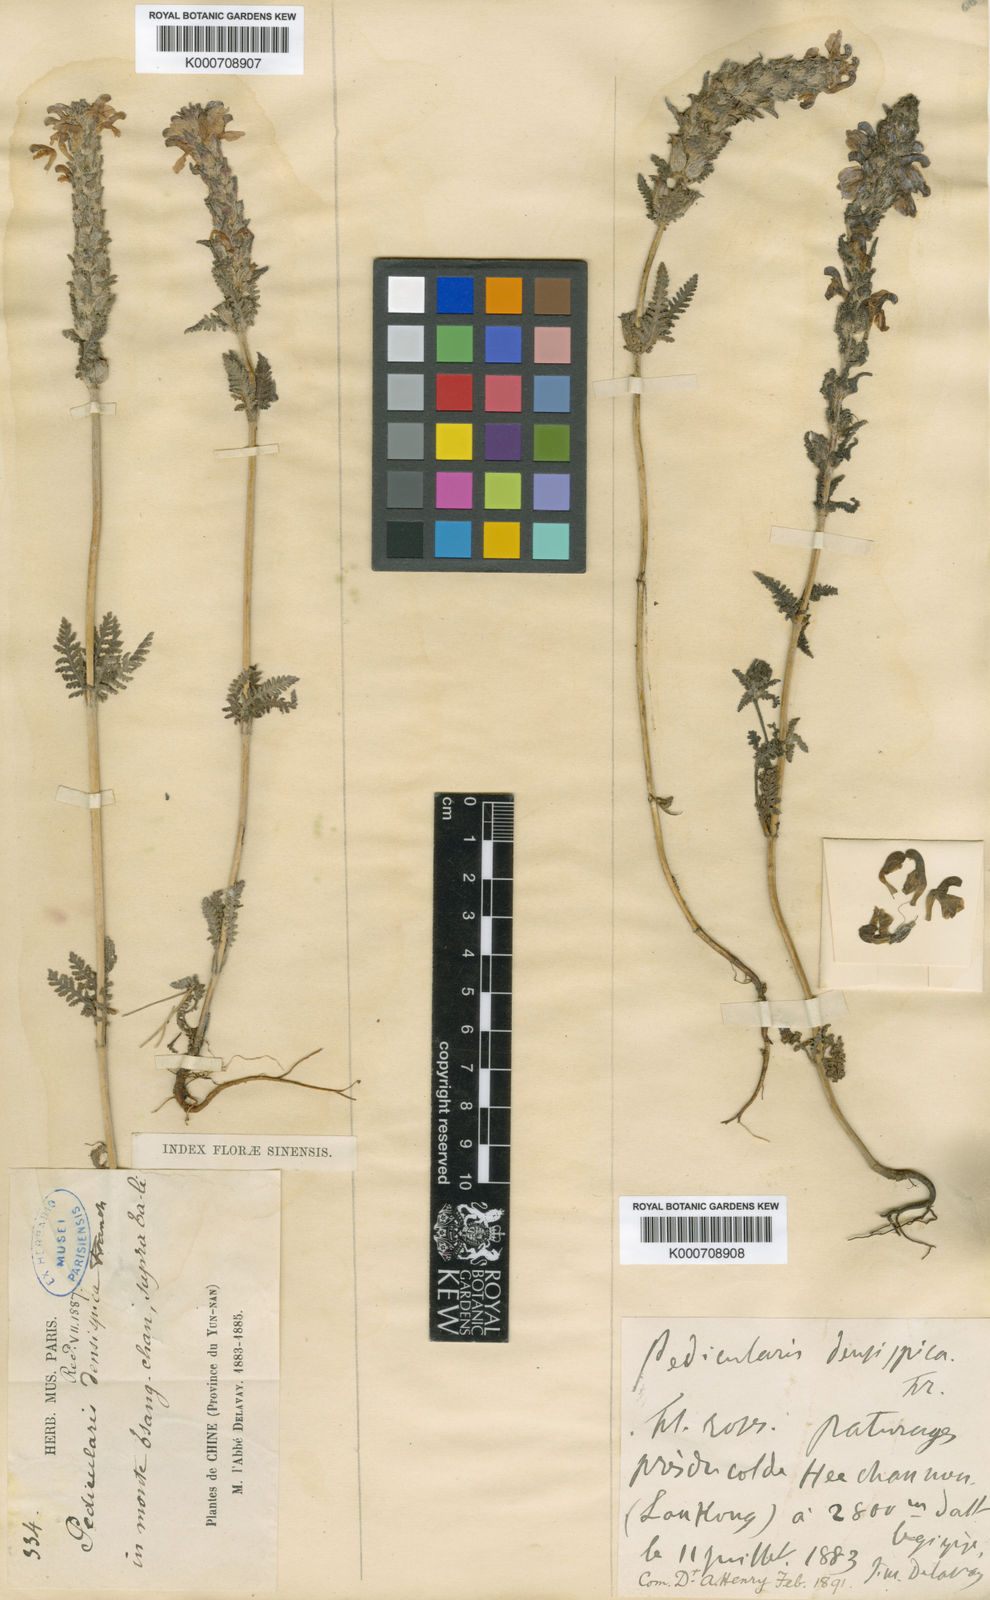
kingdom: Plantae
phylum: Tracheophyta
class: Magnoliopsida
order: Lamiales
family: Orobanchaceae
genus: Pedicularis
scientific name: Pedicularis densispica
